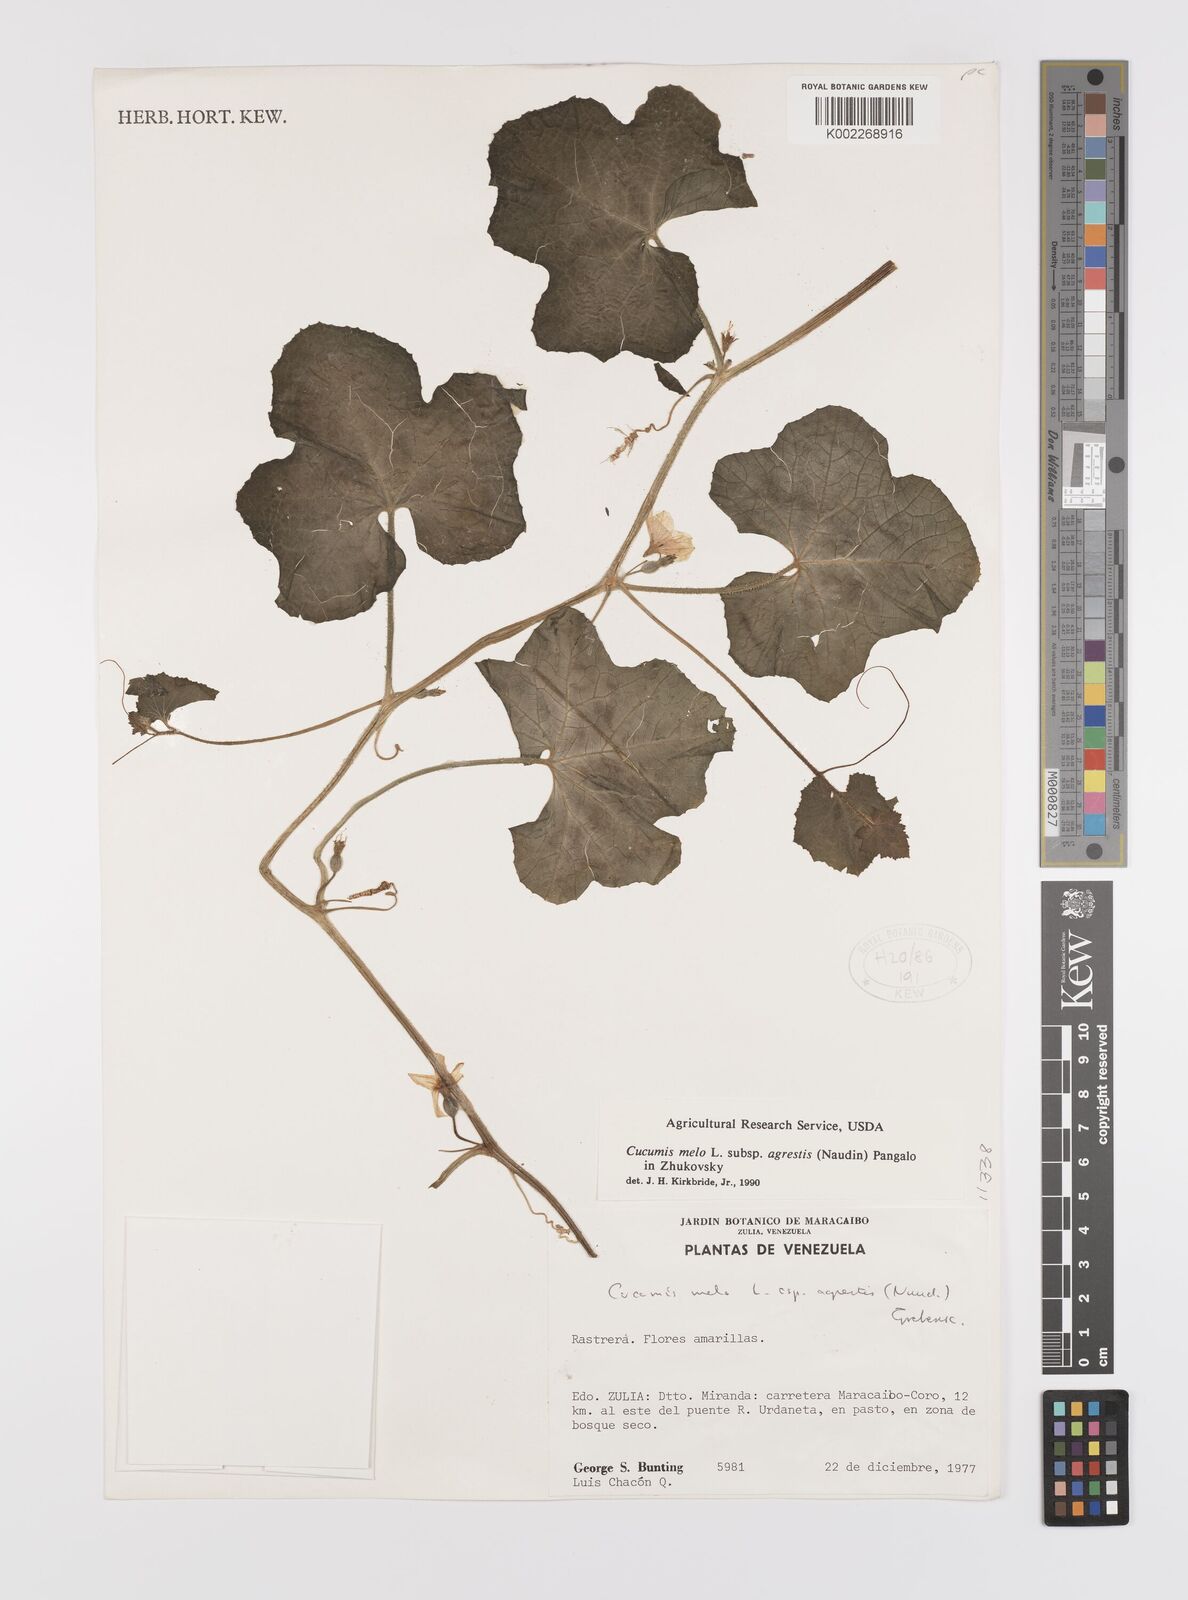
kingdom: Plantae
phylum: Tracheophyta
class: Magnoliopsida
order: Cucurbitales
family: Cucurbitaceae
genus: Cucumis
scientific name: Cucumis melo
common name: Melon
